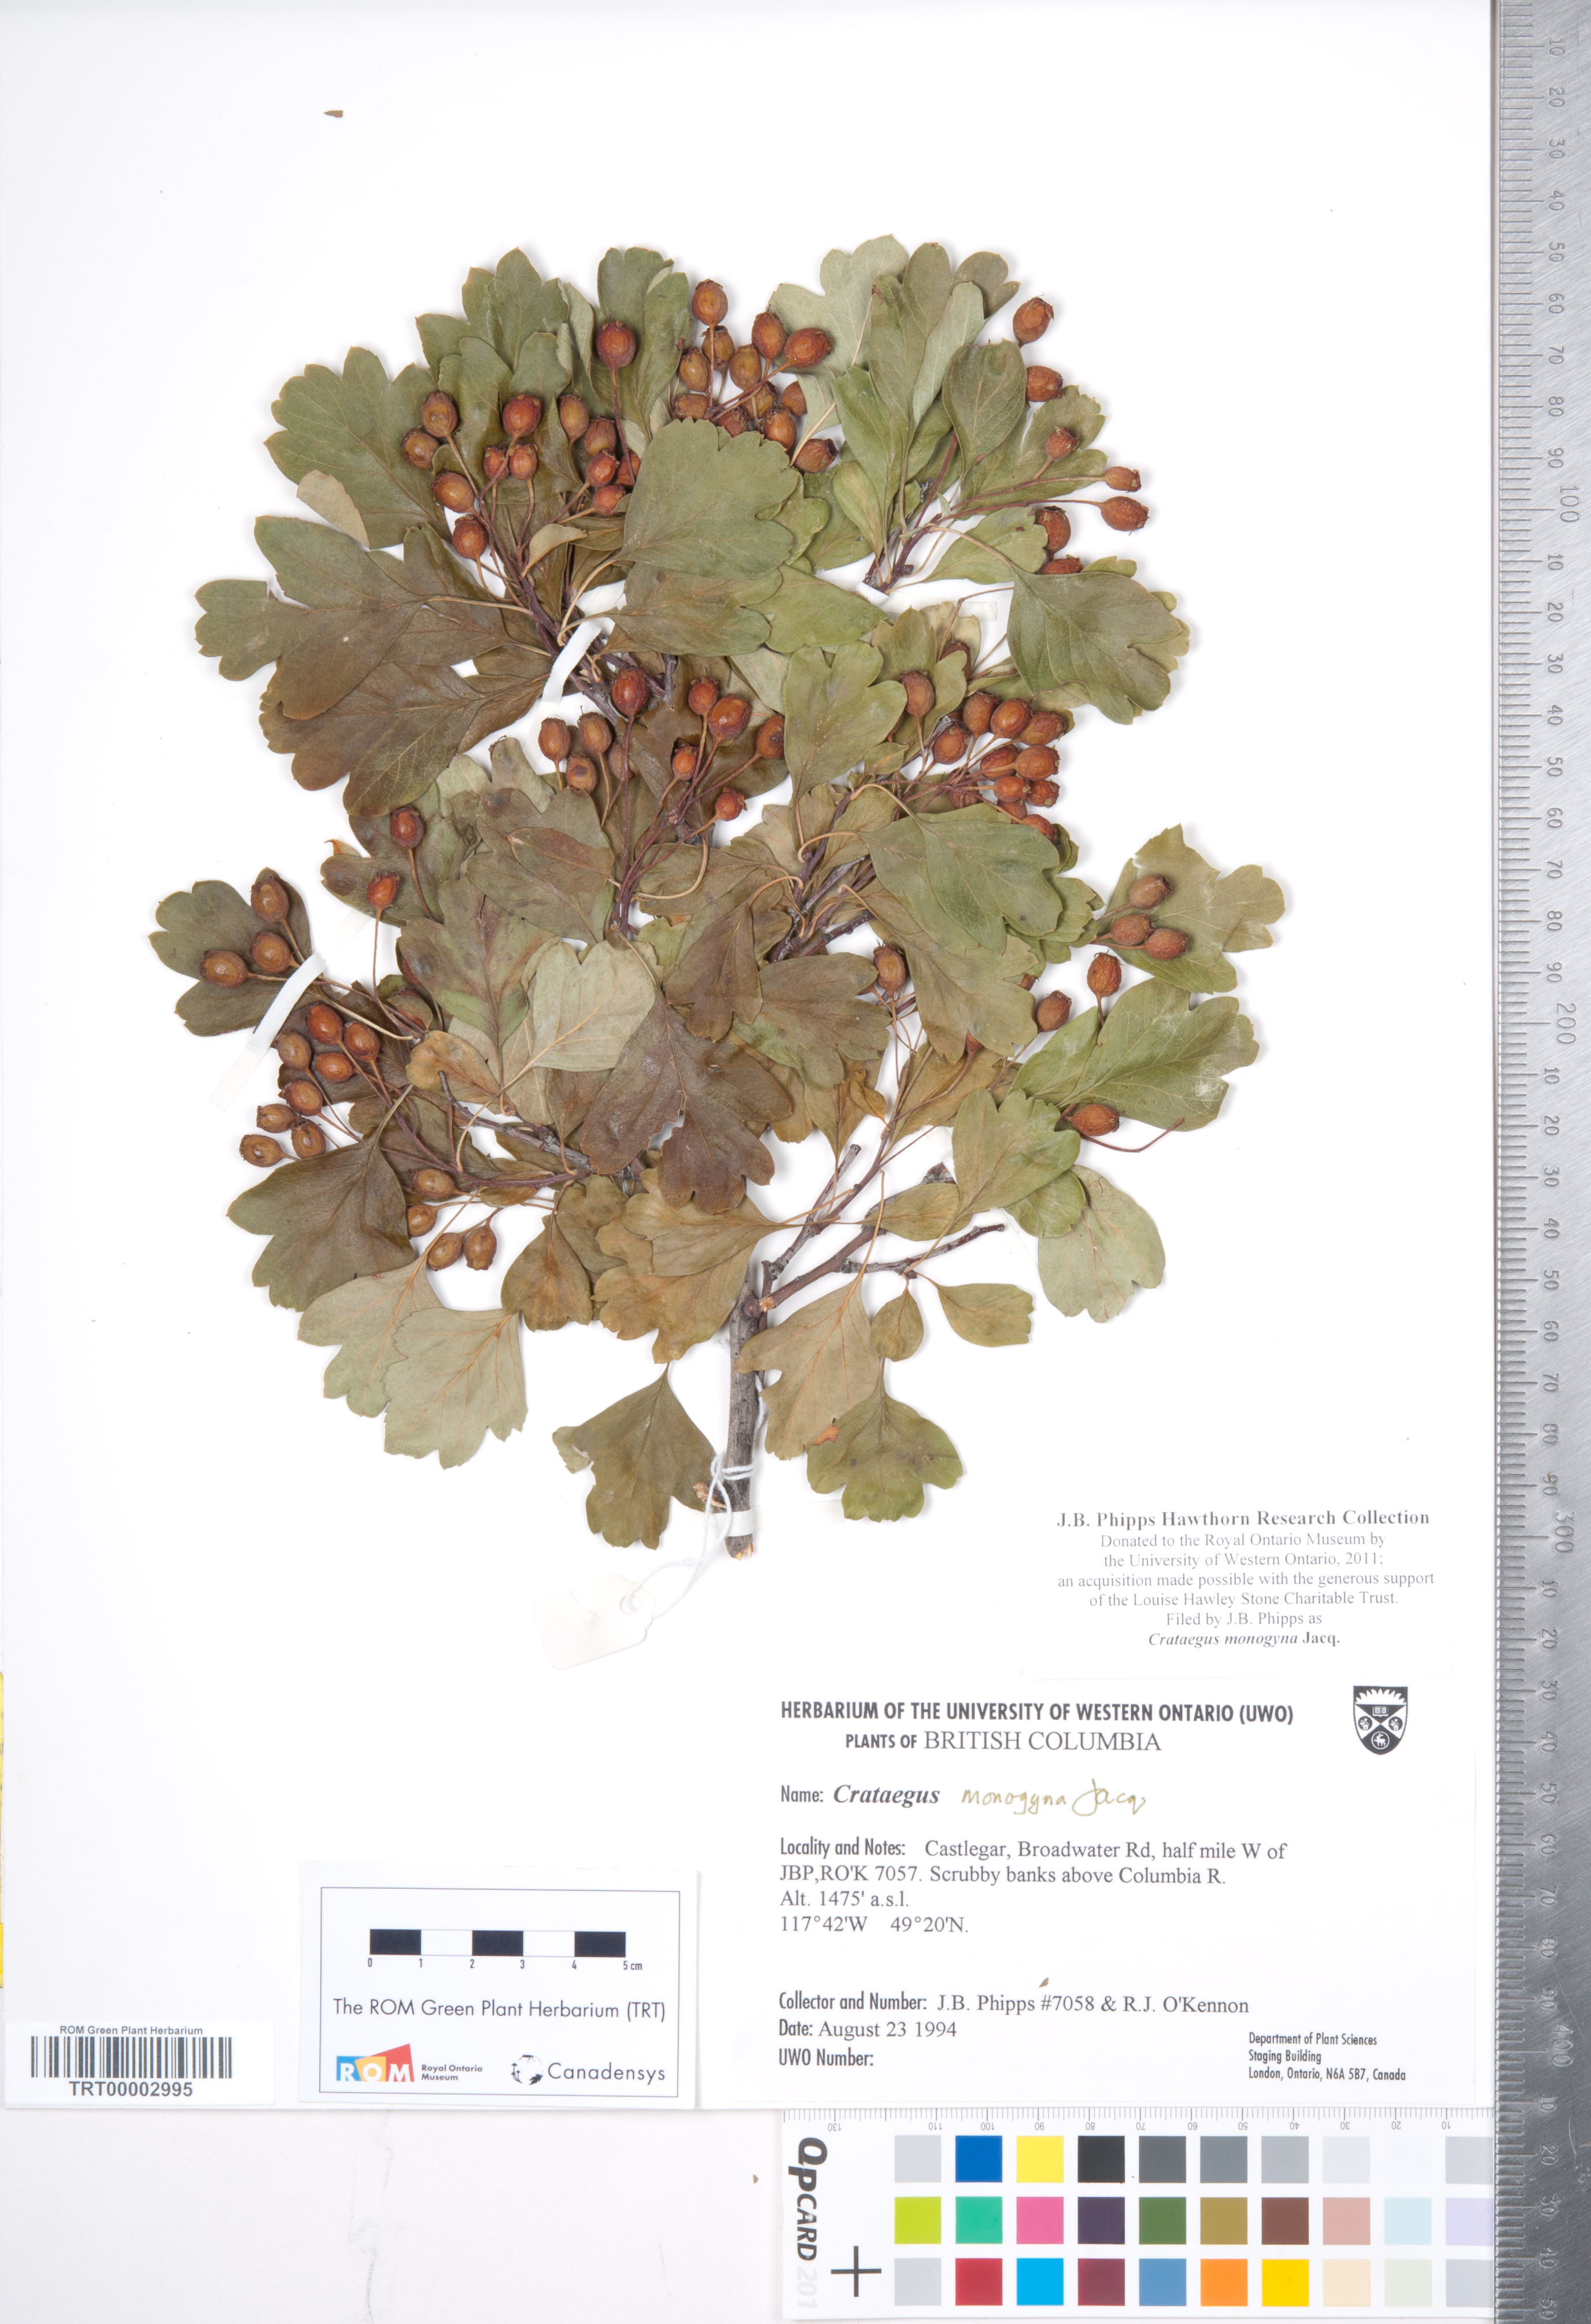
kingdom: Plantae
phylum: Tracheophyta
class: Magnoliopsida
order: Rosales
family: Rosaceae
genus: Crataegus
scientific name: Crataegus monogyna
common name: Hawthorn
